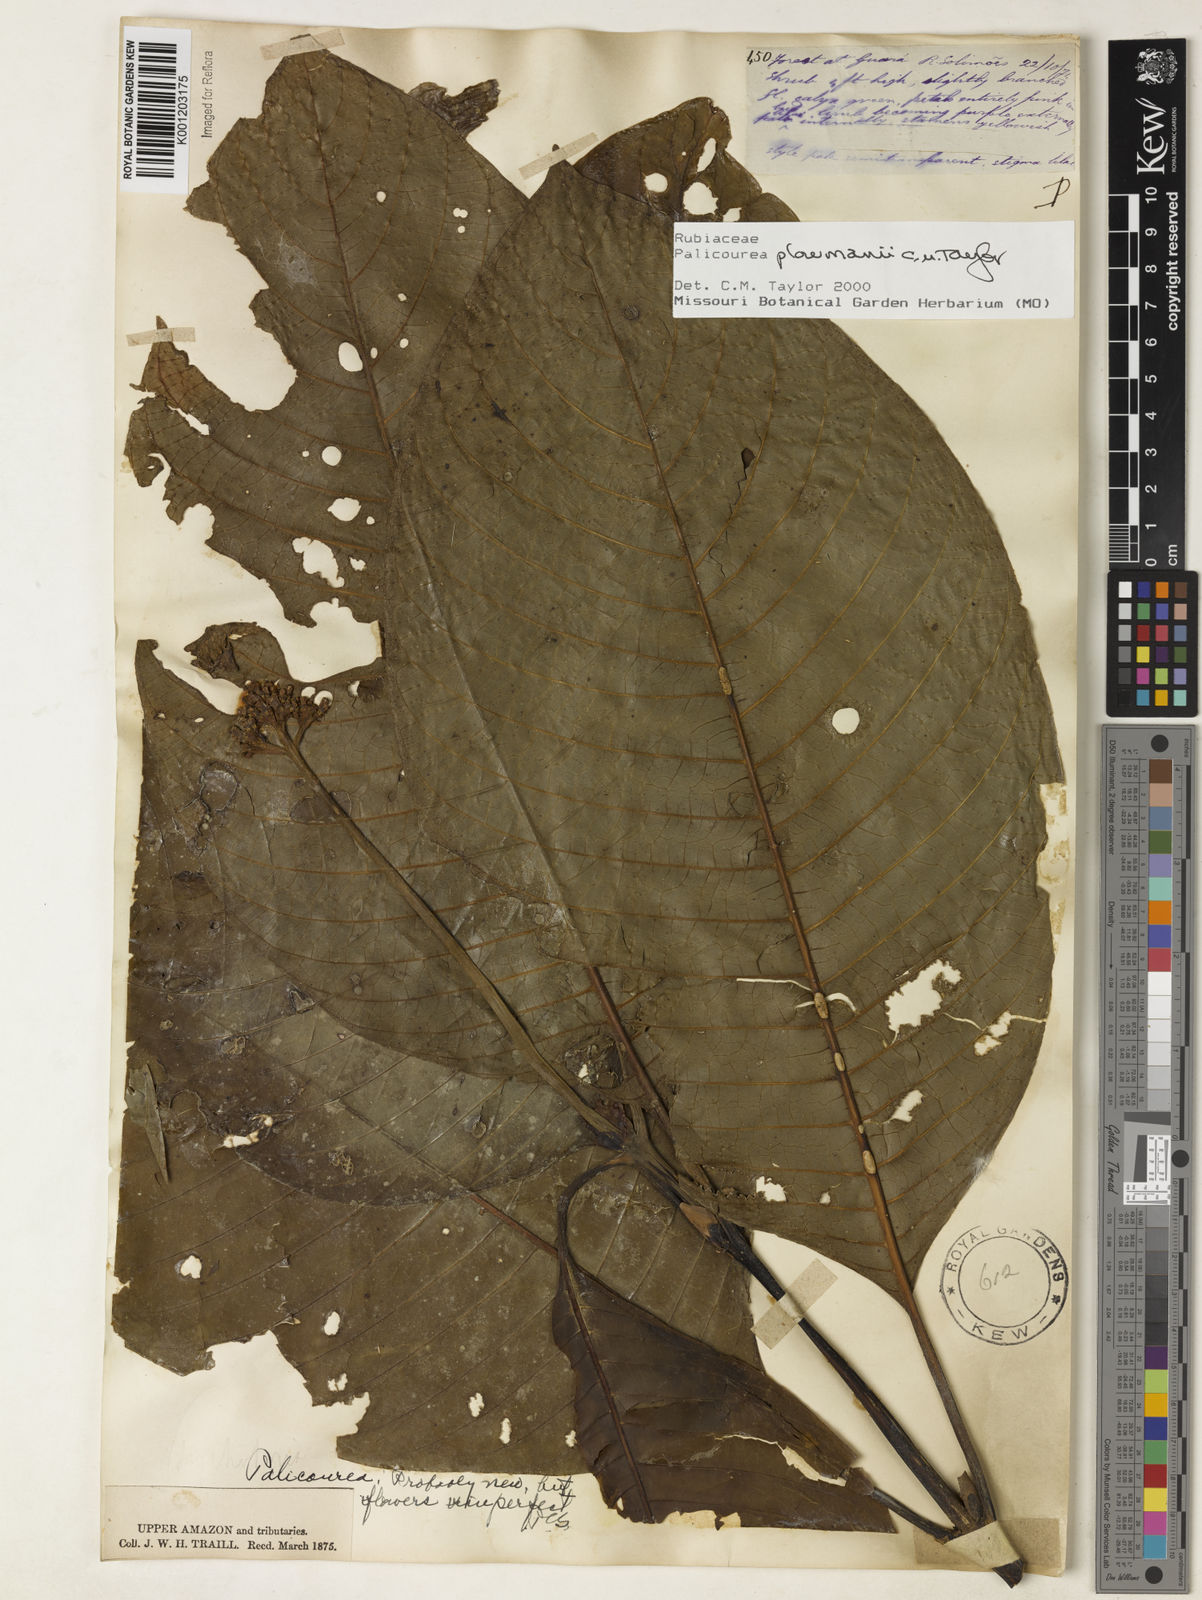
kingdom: Plantae
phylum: Tracheophyta
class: Magnoliopsida
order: Gentianales
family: Rubiaceae
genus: Palicourea
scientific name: Palicourea paulina
